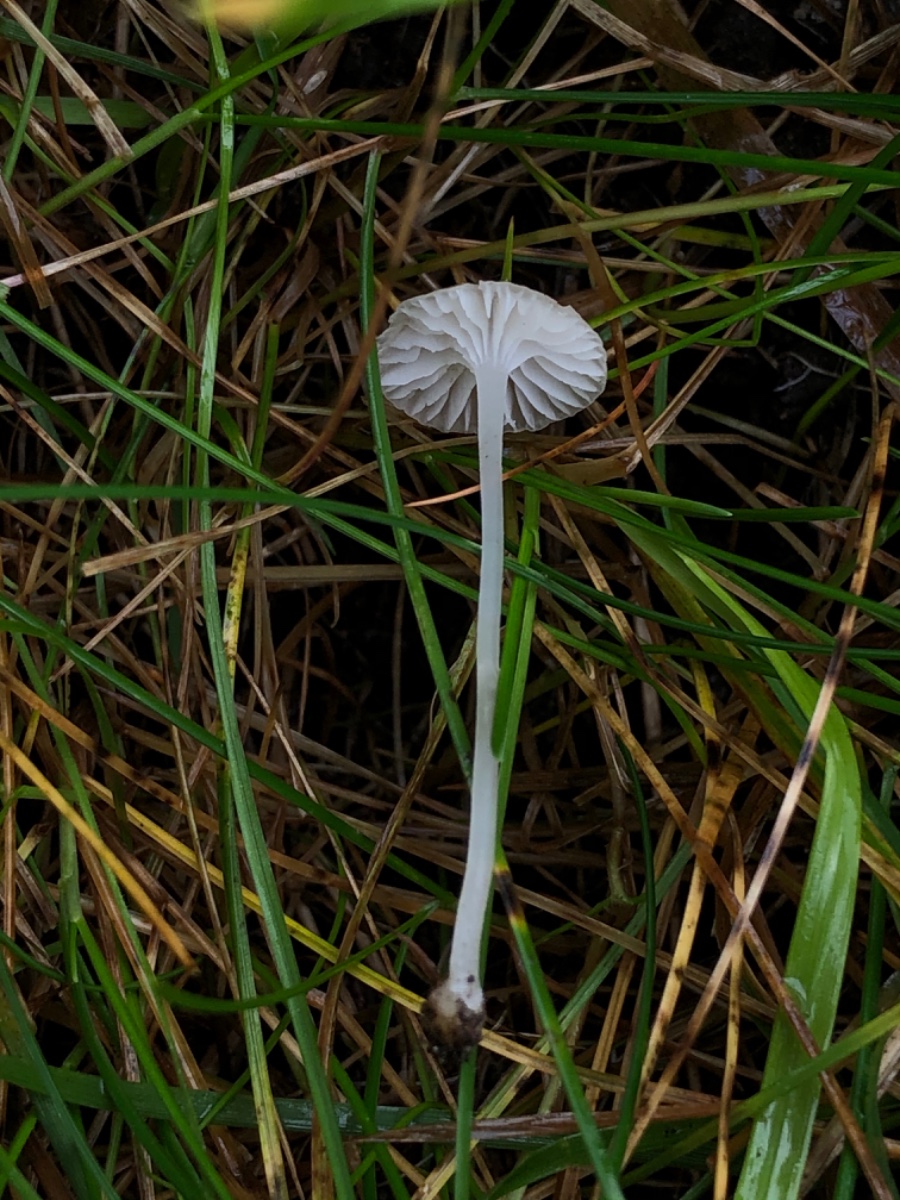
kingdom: Fungi
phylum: Basidiomycota
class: Agaricomycetes
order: Agaricales
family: Mycenaceae
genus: Hemimycena
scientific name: Hemimycena mairei
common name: voks-huesvamp
